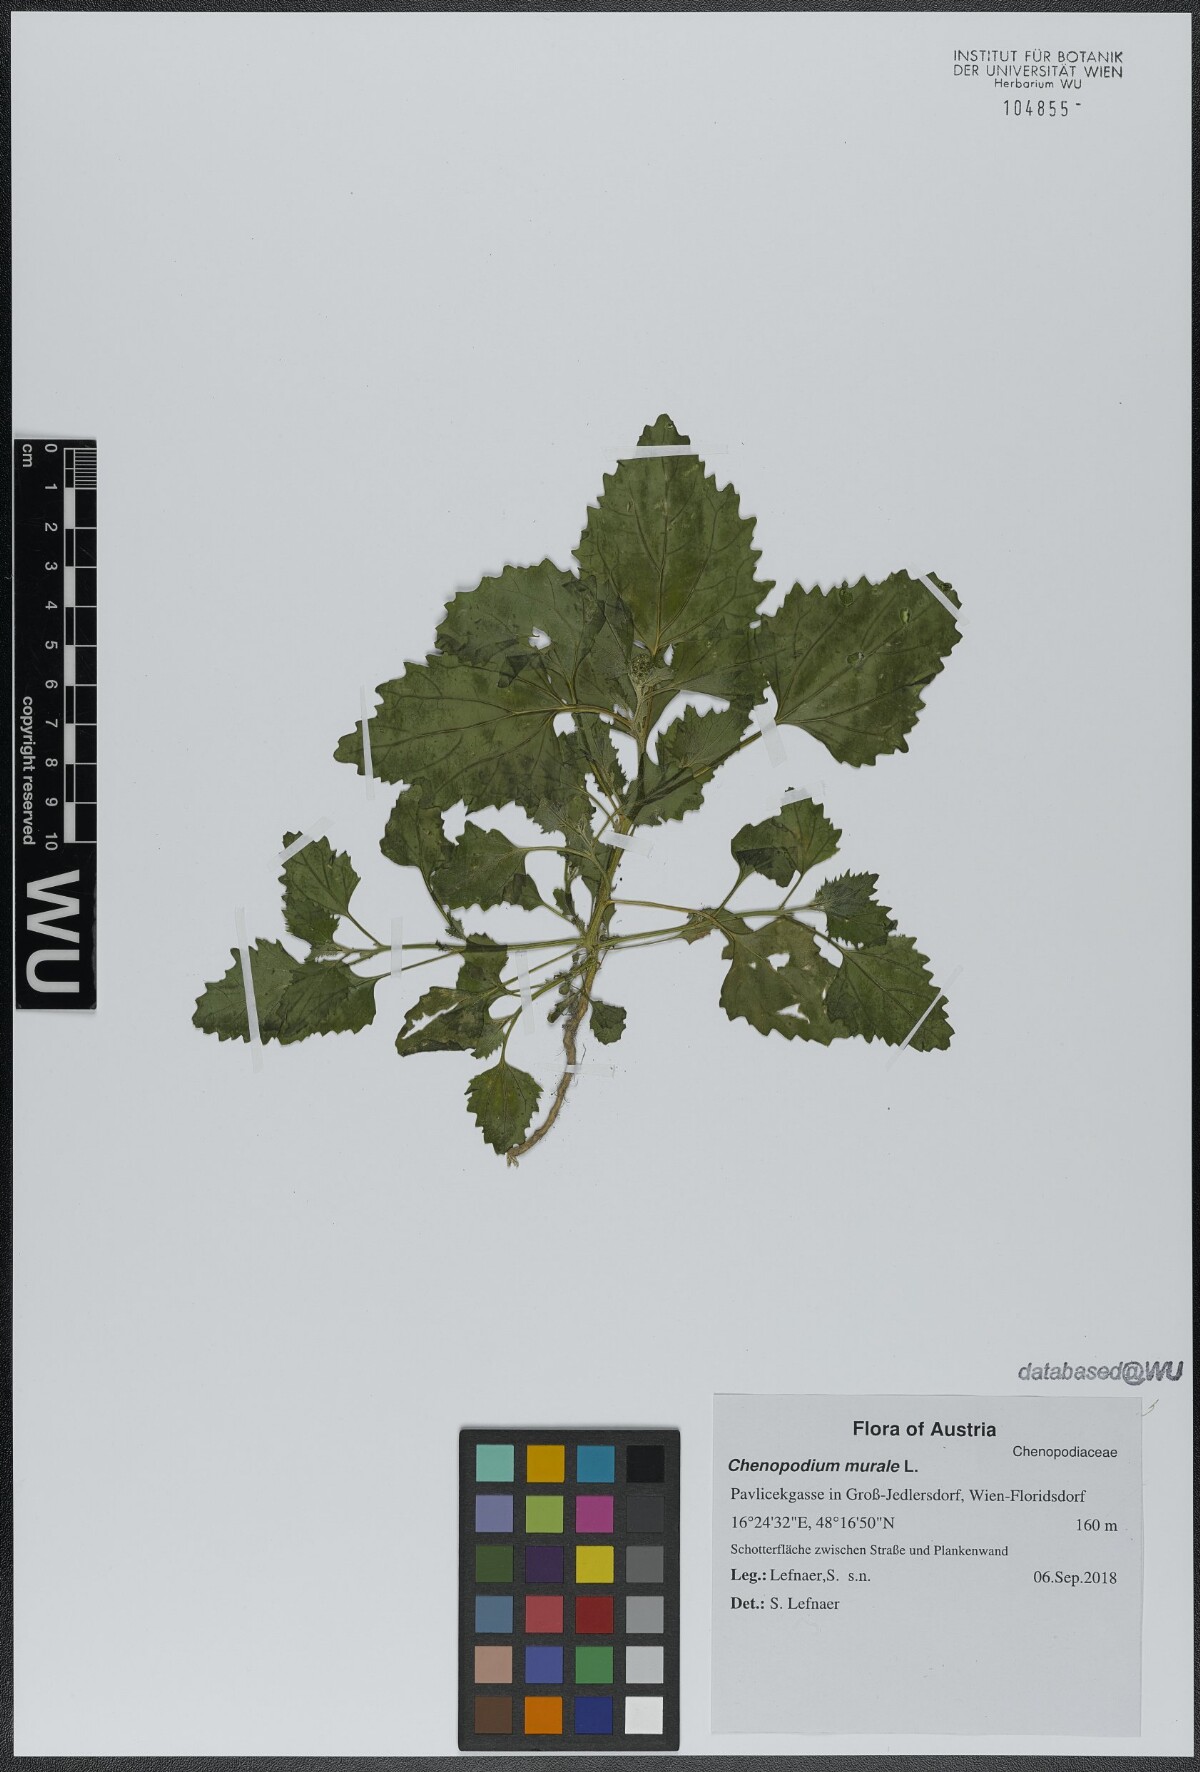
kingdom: Plantae
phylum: Tracheophyta
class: Magnoliopsida
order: Caryophyllales
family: Amaranthaceae
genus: Chenopodiastrum
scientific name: Chenopodiastrum murale
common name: Sowbane
